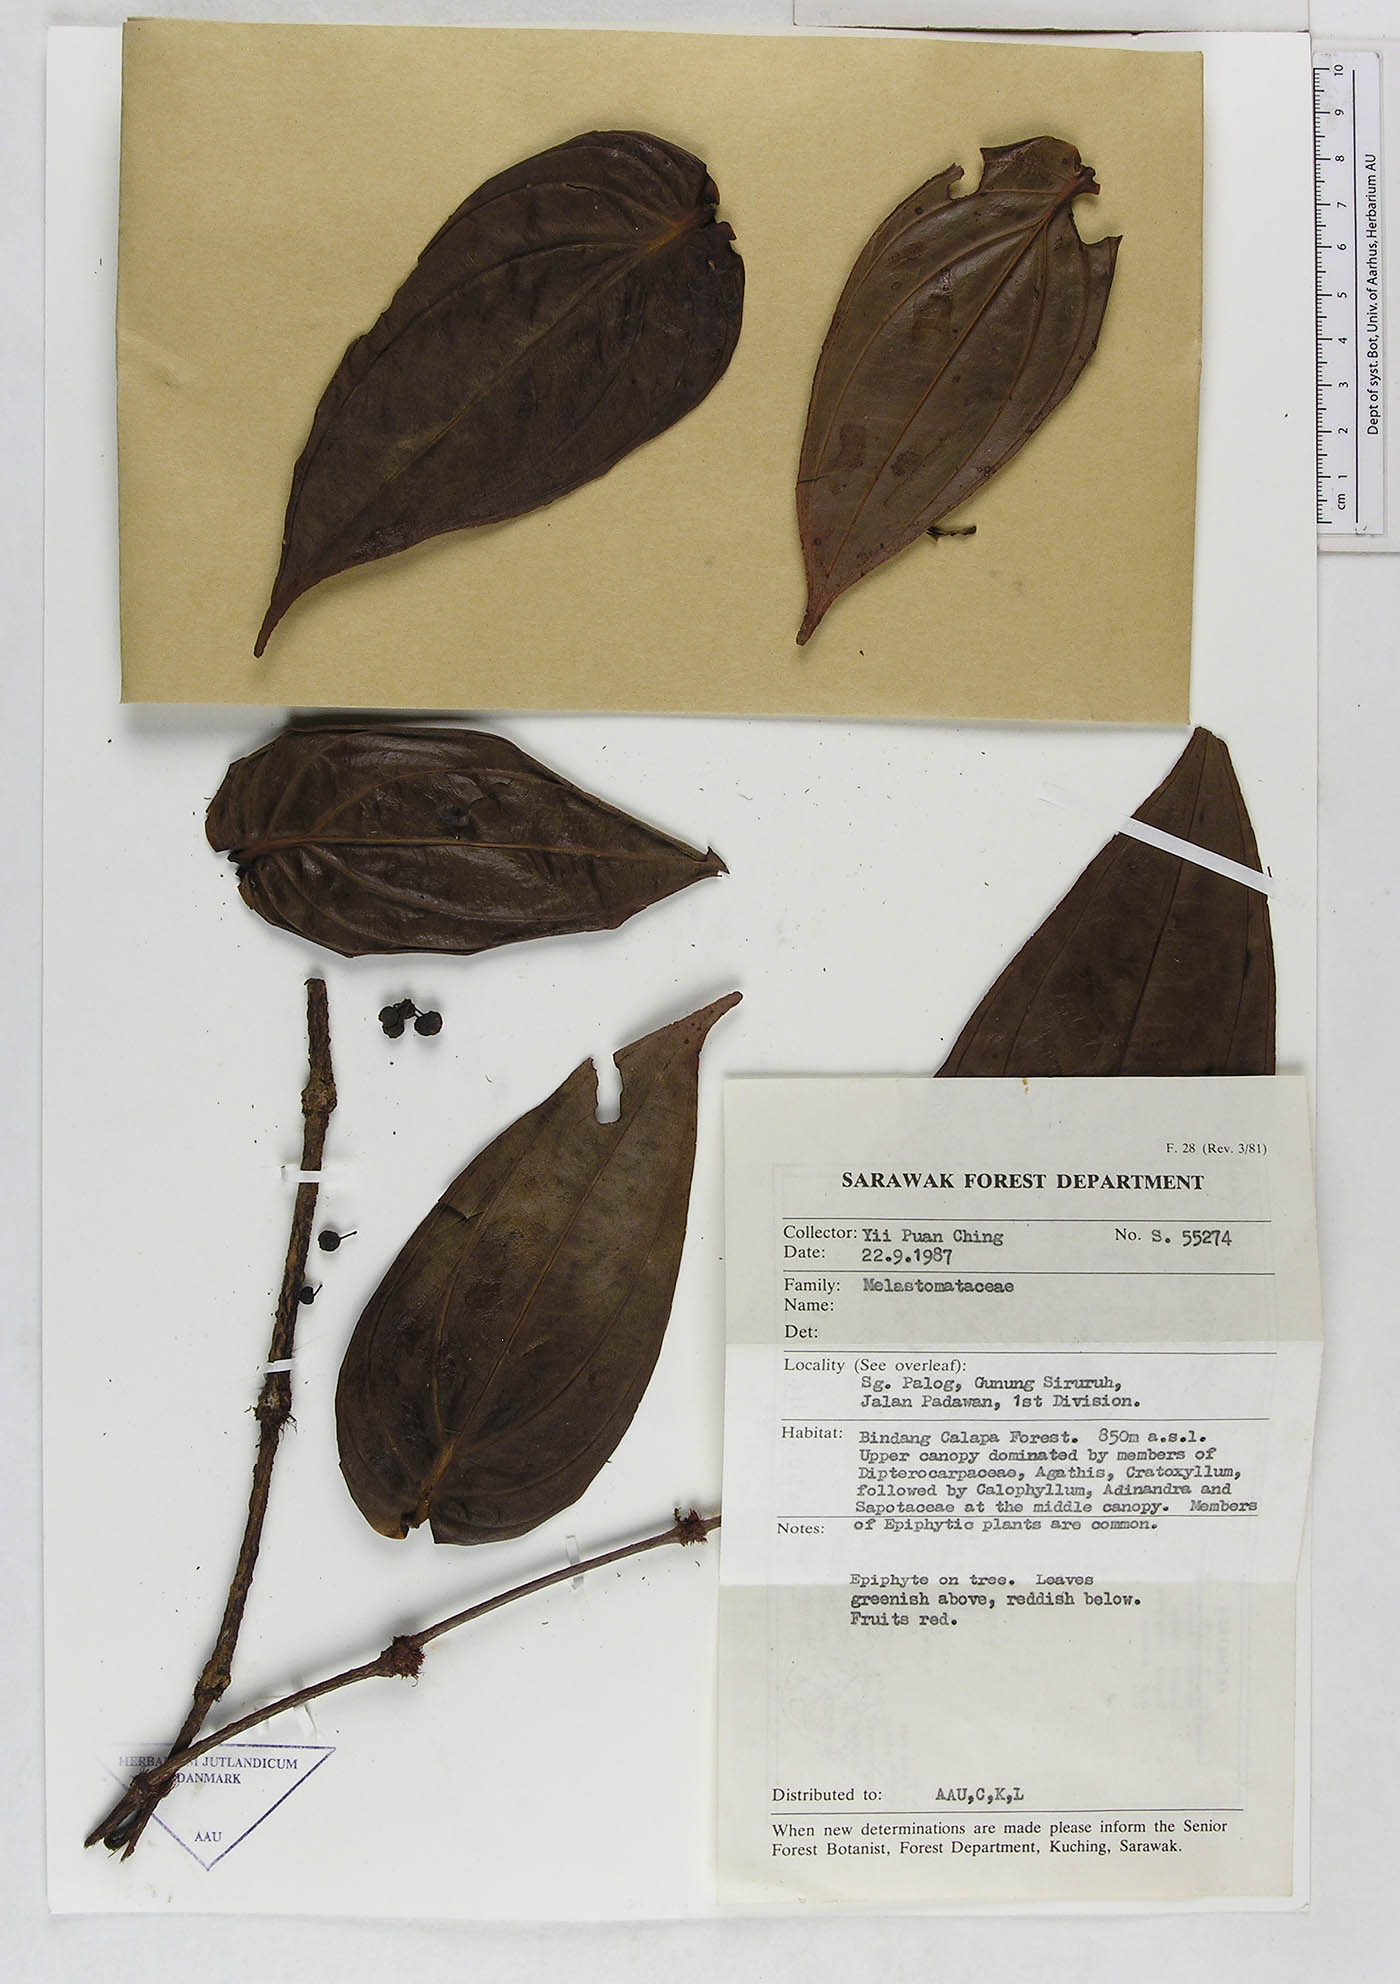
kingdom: Plantae
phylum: Tracheophyta
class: Magnoliopsida
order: Myrtales
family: Melastomataceae
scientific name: Melastomataceae
